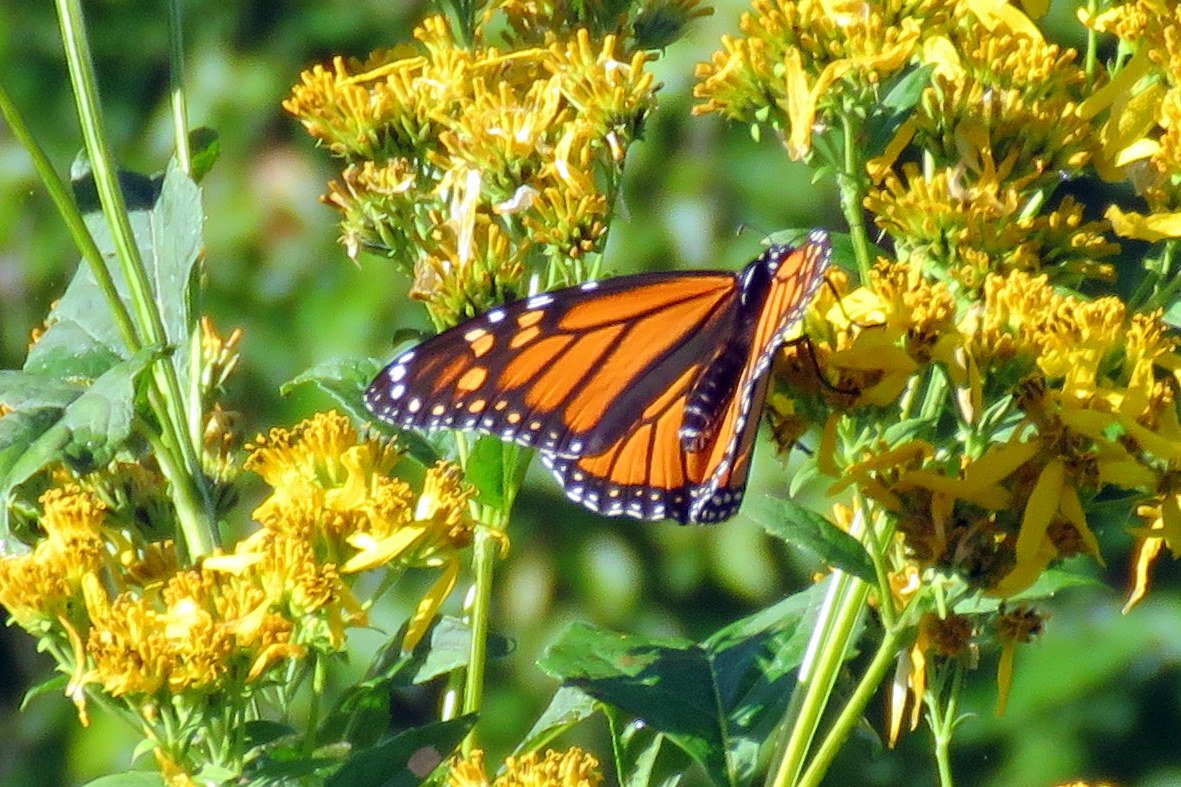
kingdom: Animalia
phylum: Arthropoda
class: Insecta
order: Lepidoptera
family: Nymphalidae
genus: Danaus
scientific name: Danaus plexippus
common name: Monarch
